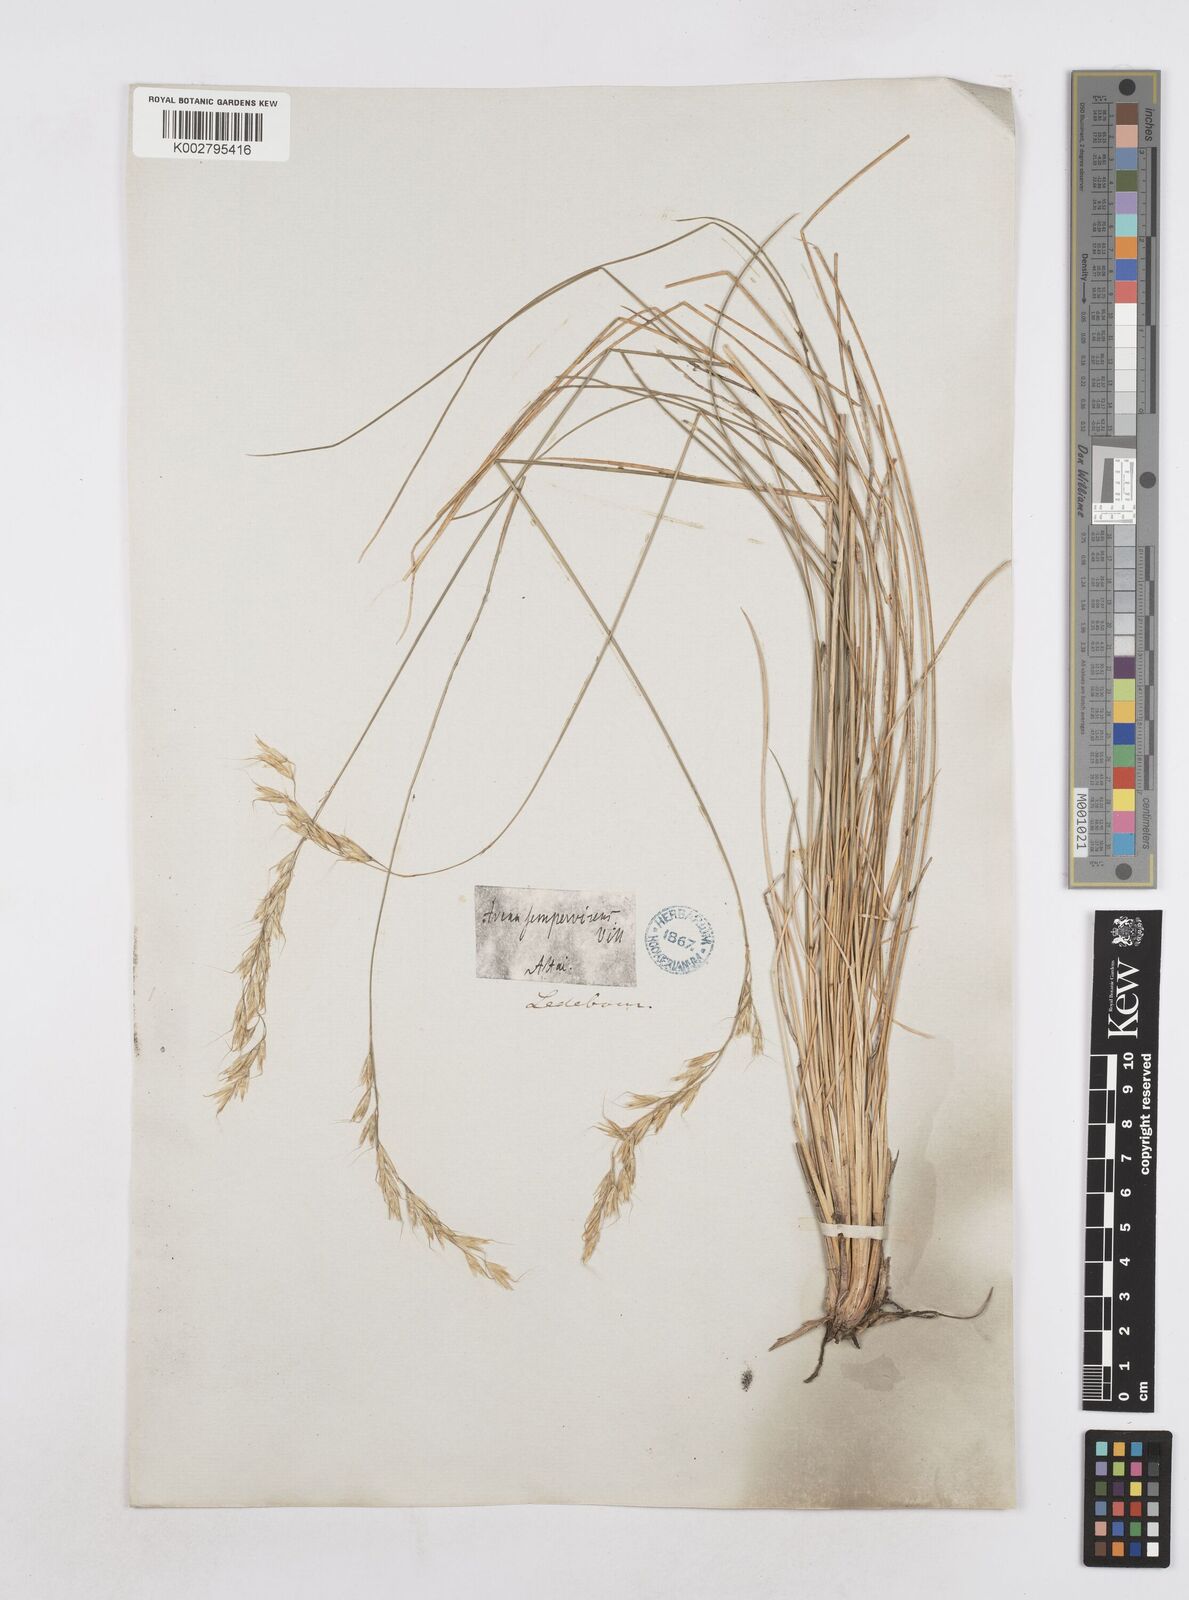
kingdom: Plantae
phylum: Tracheophyta
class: Liliopsida
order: Poales
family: Poaceae
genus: Helictotrichon
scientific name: Helictotrichon sempervirens
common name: Blue oat-grass
